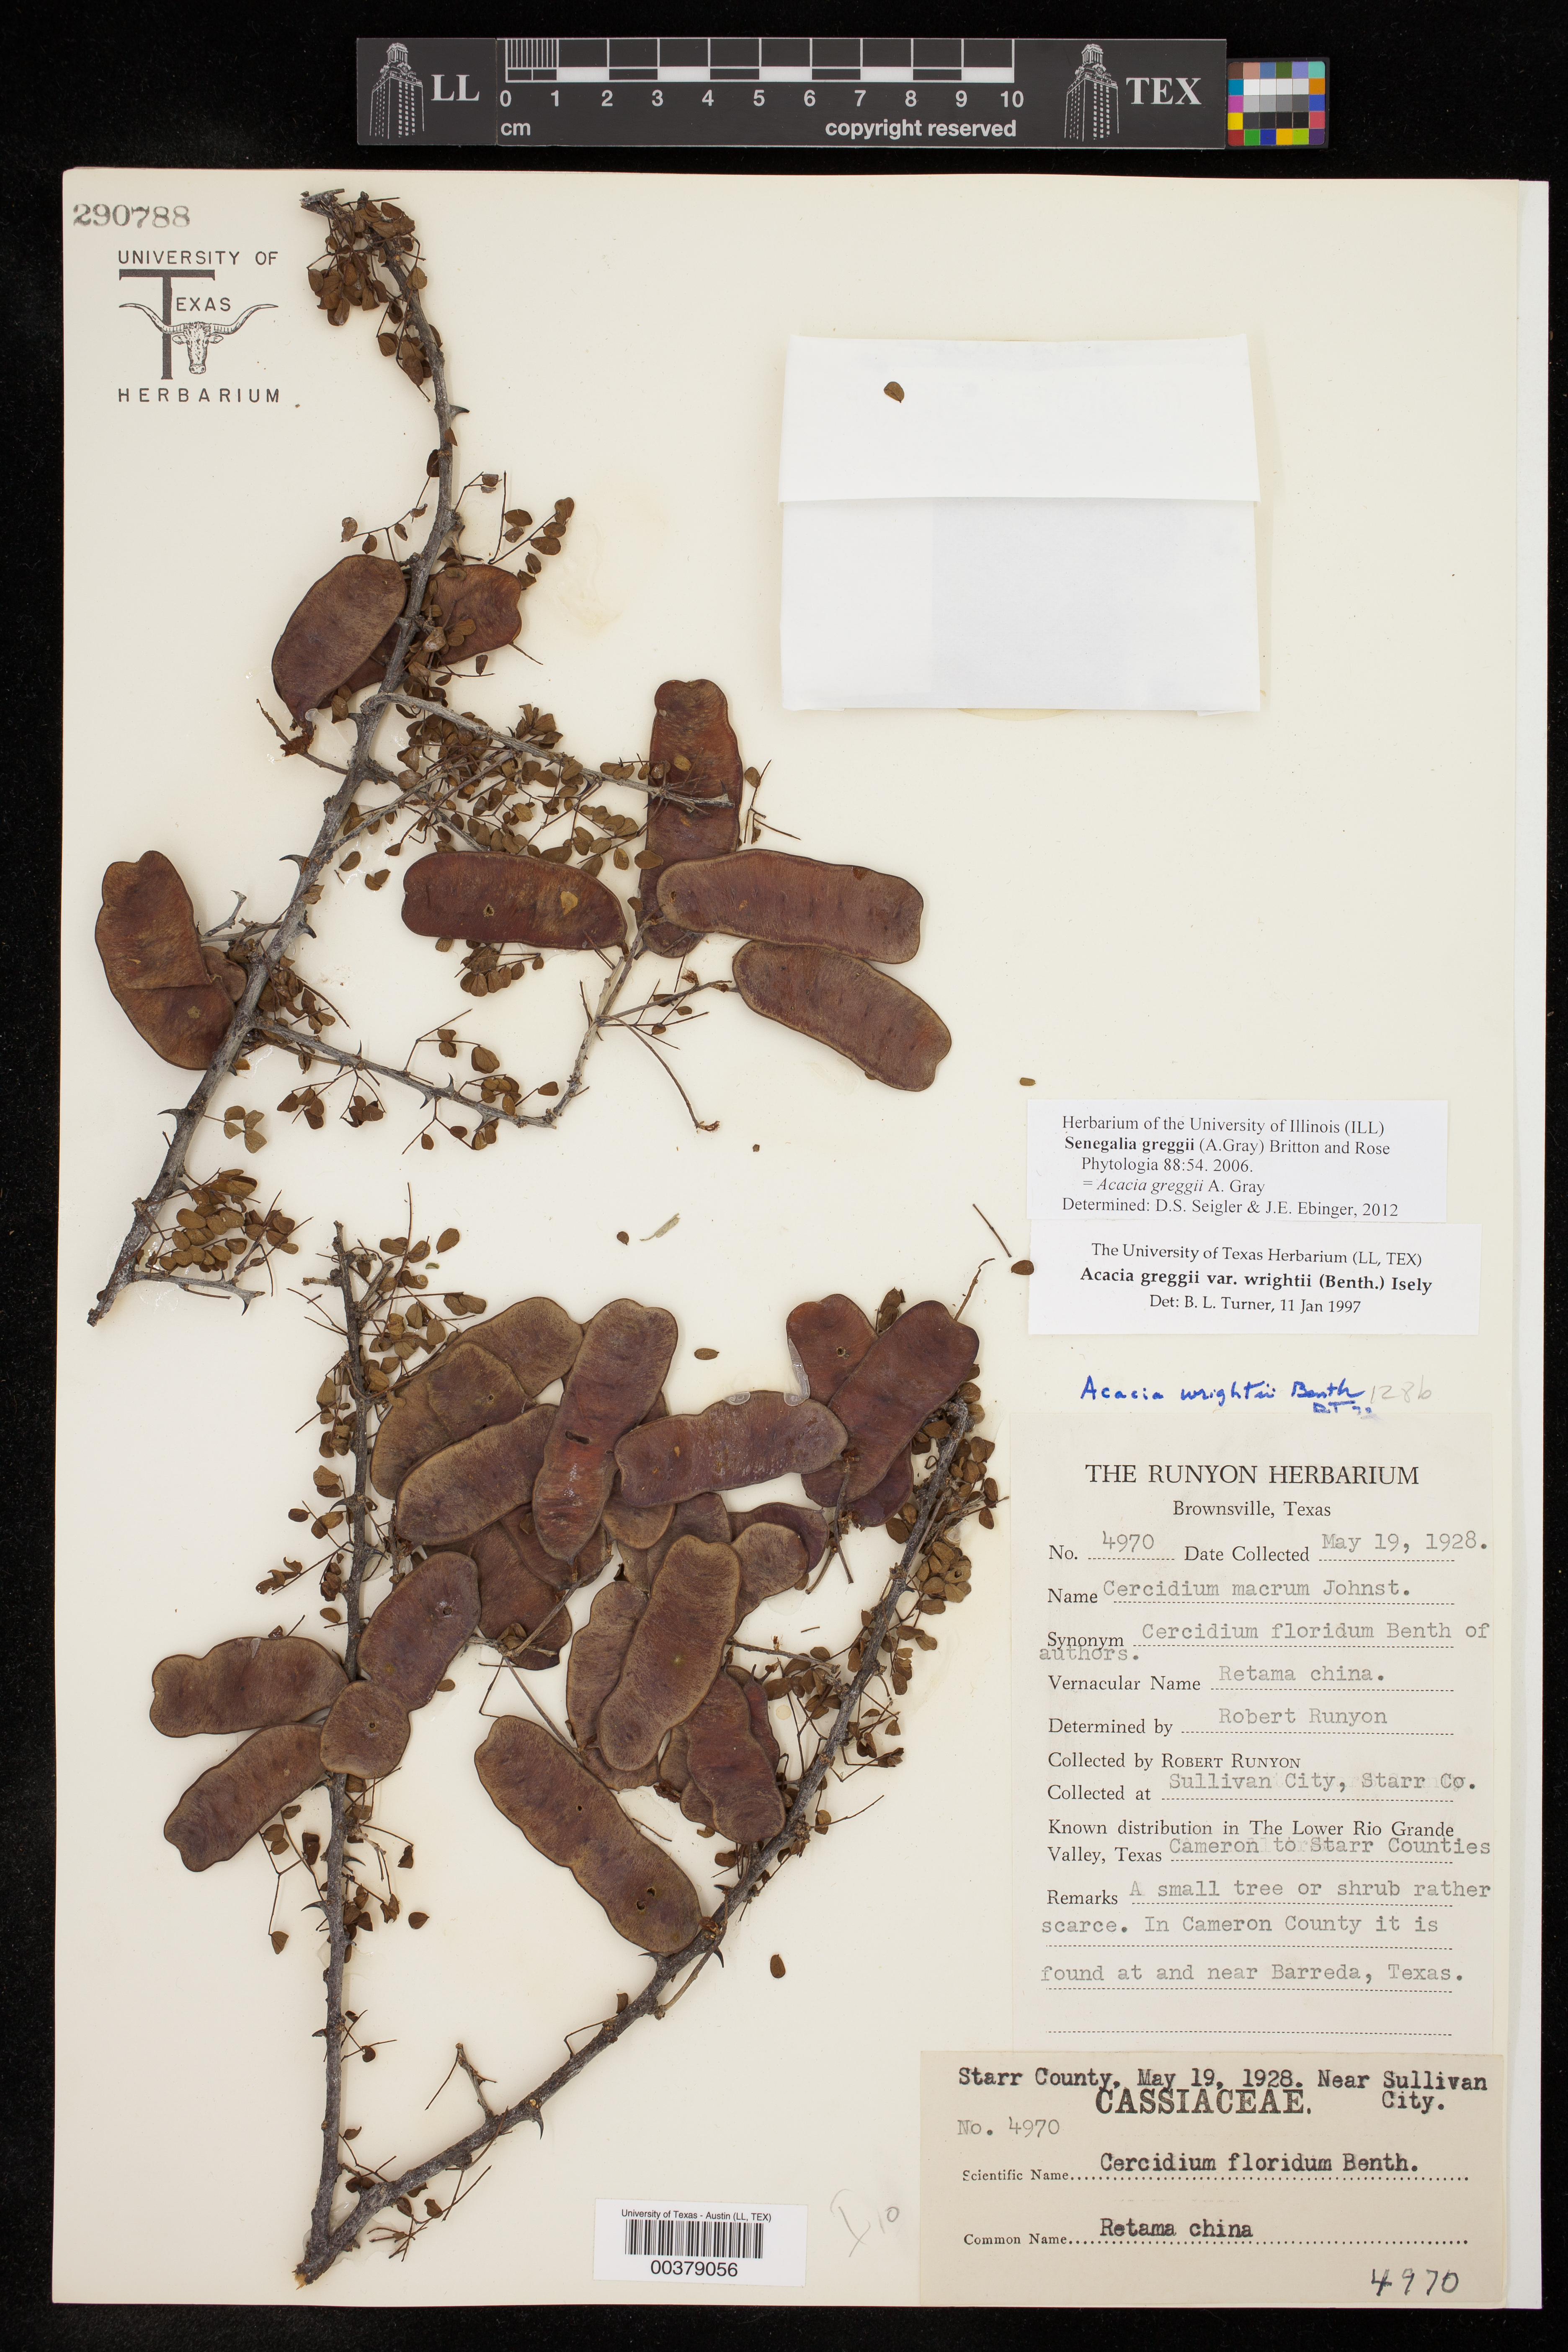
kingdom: Plantae
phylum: Tracheophyta
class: Magnoliopsida
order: Fabales
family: Fabaceae
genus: Senegalia
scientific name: Senegalia greggii
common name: Texas-mimosa
